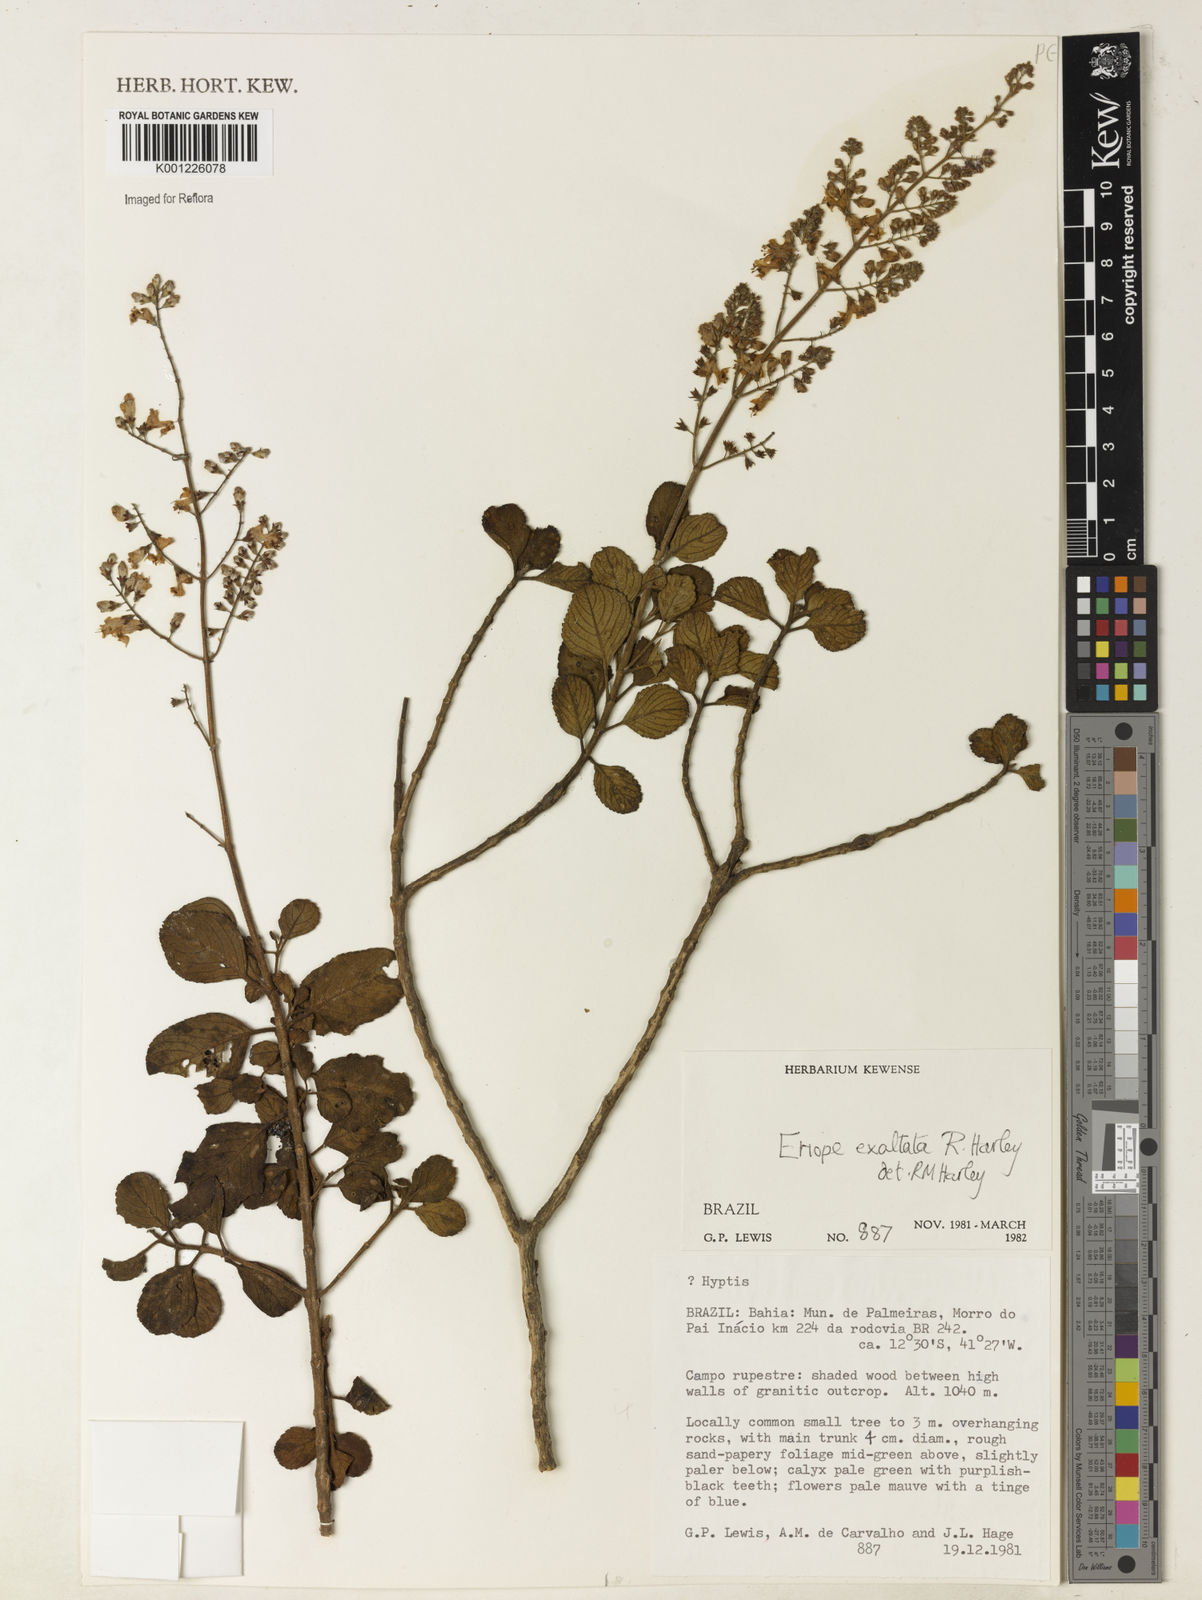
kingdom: Plantae
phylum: Tracheophyta
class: Magnoliopsida
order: Lamiales
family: Lamiaceae
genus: Eriope
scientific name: Eriope exaltata
